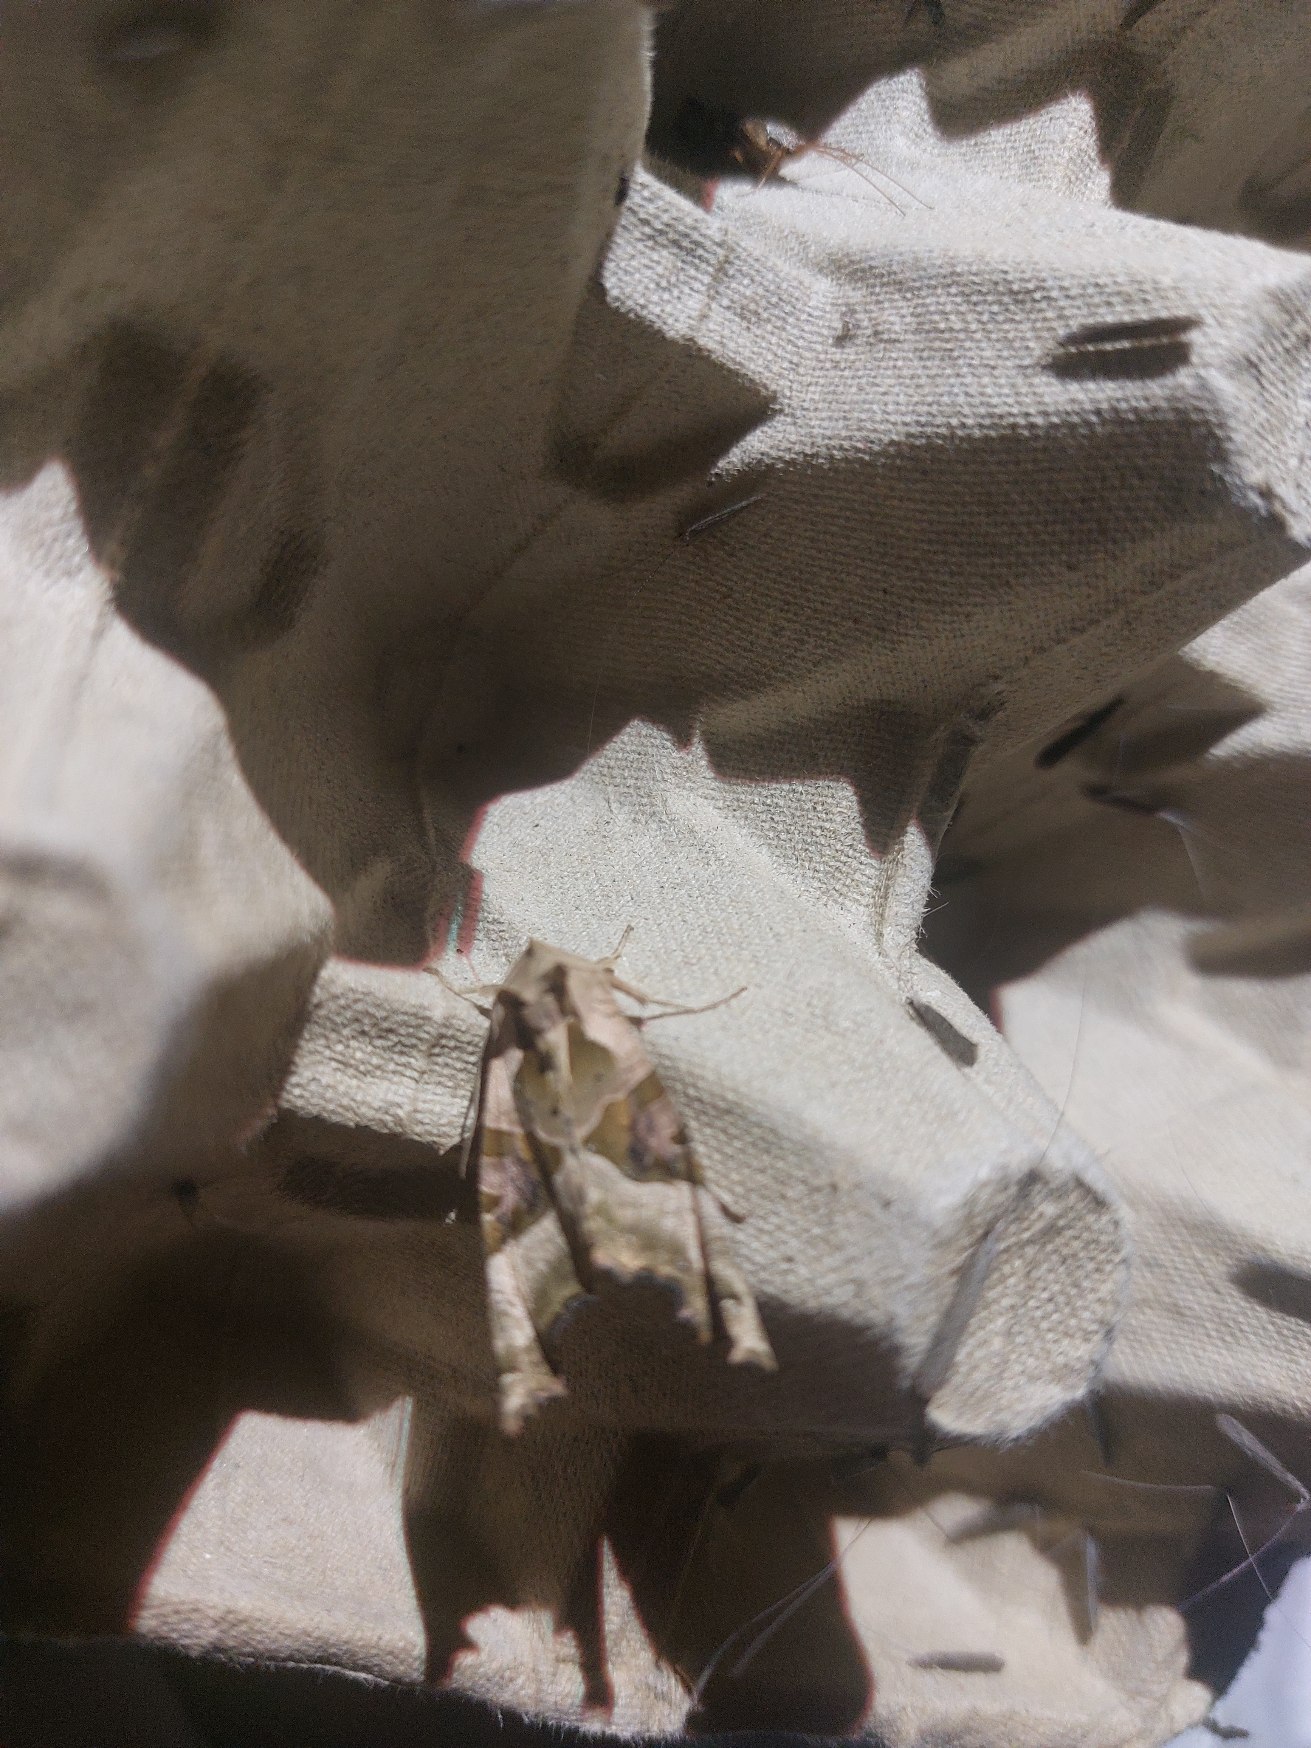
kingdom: Animalia
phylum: Arthropoda
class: Insecta
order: Lepidoptera
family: Noctuidae
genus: Phlogophora
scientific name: Phlogophora meticulosa
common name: Agatugle
